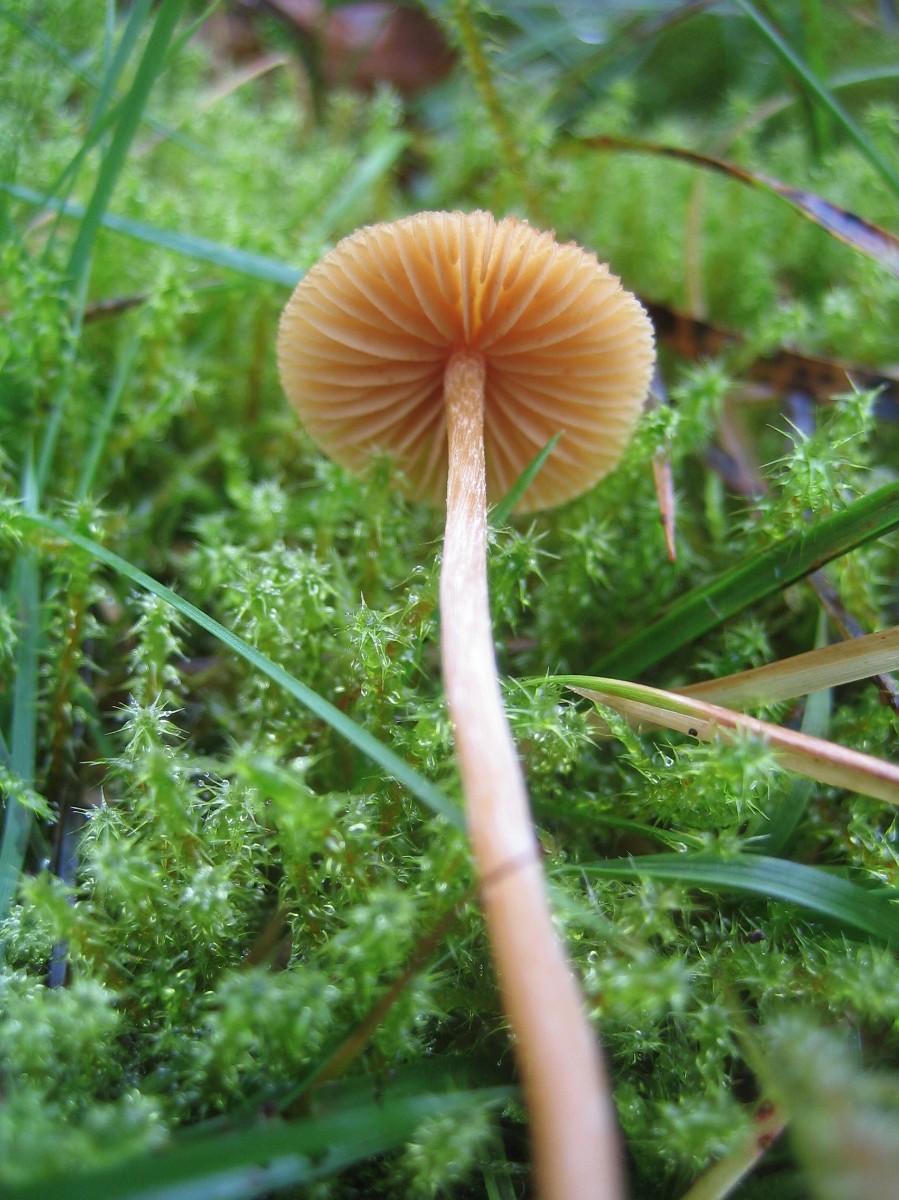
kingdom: Fungi
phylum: Basidiomycota
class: Agaricomycetes
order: Agaricales
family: Hymenogastraceae
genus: Galerina
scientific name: Galerina
